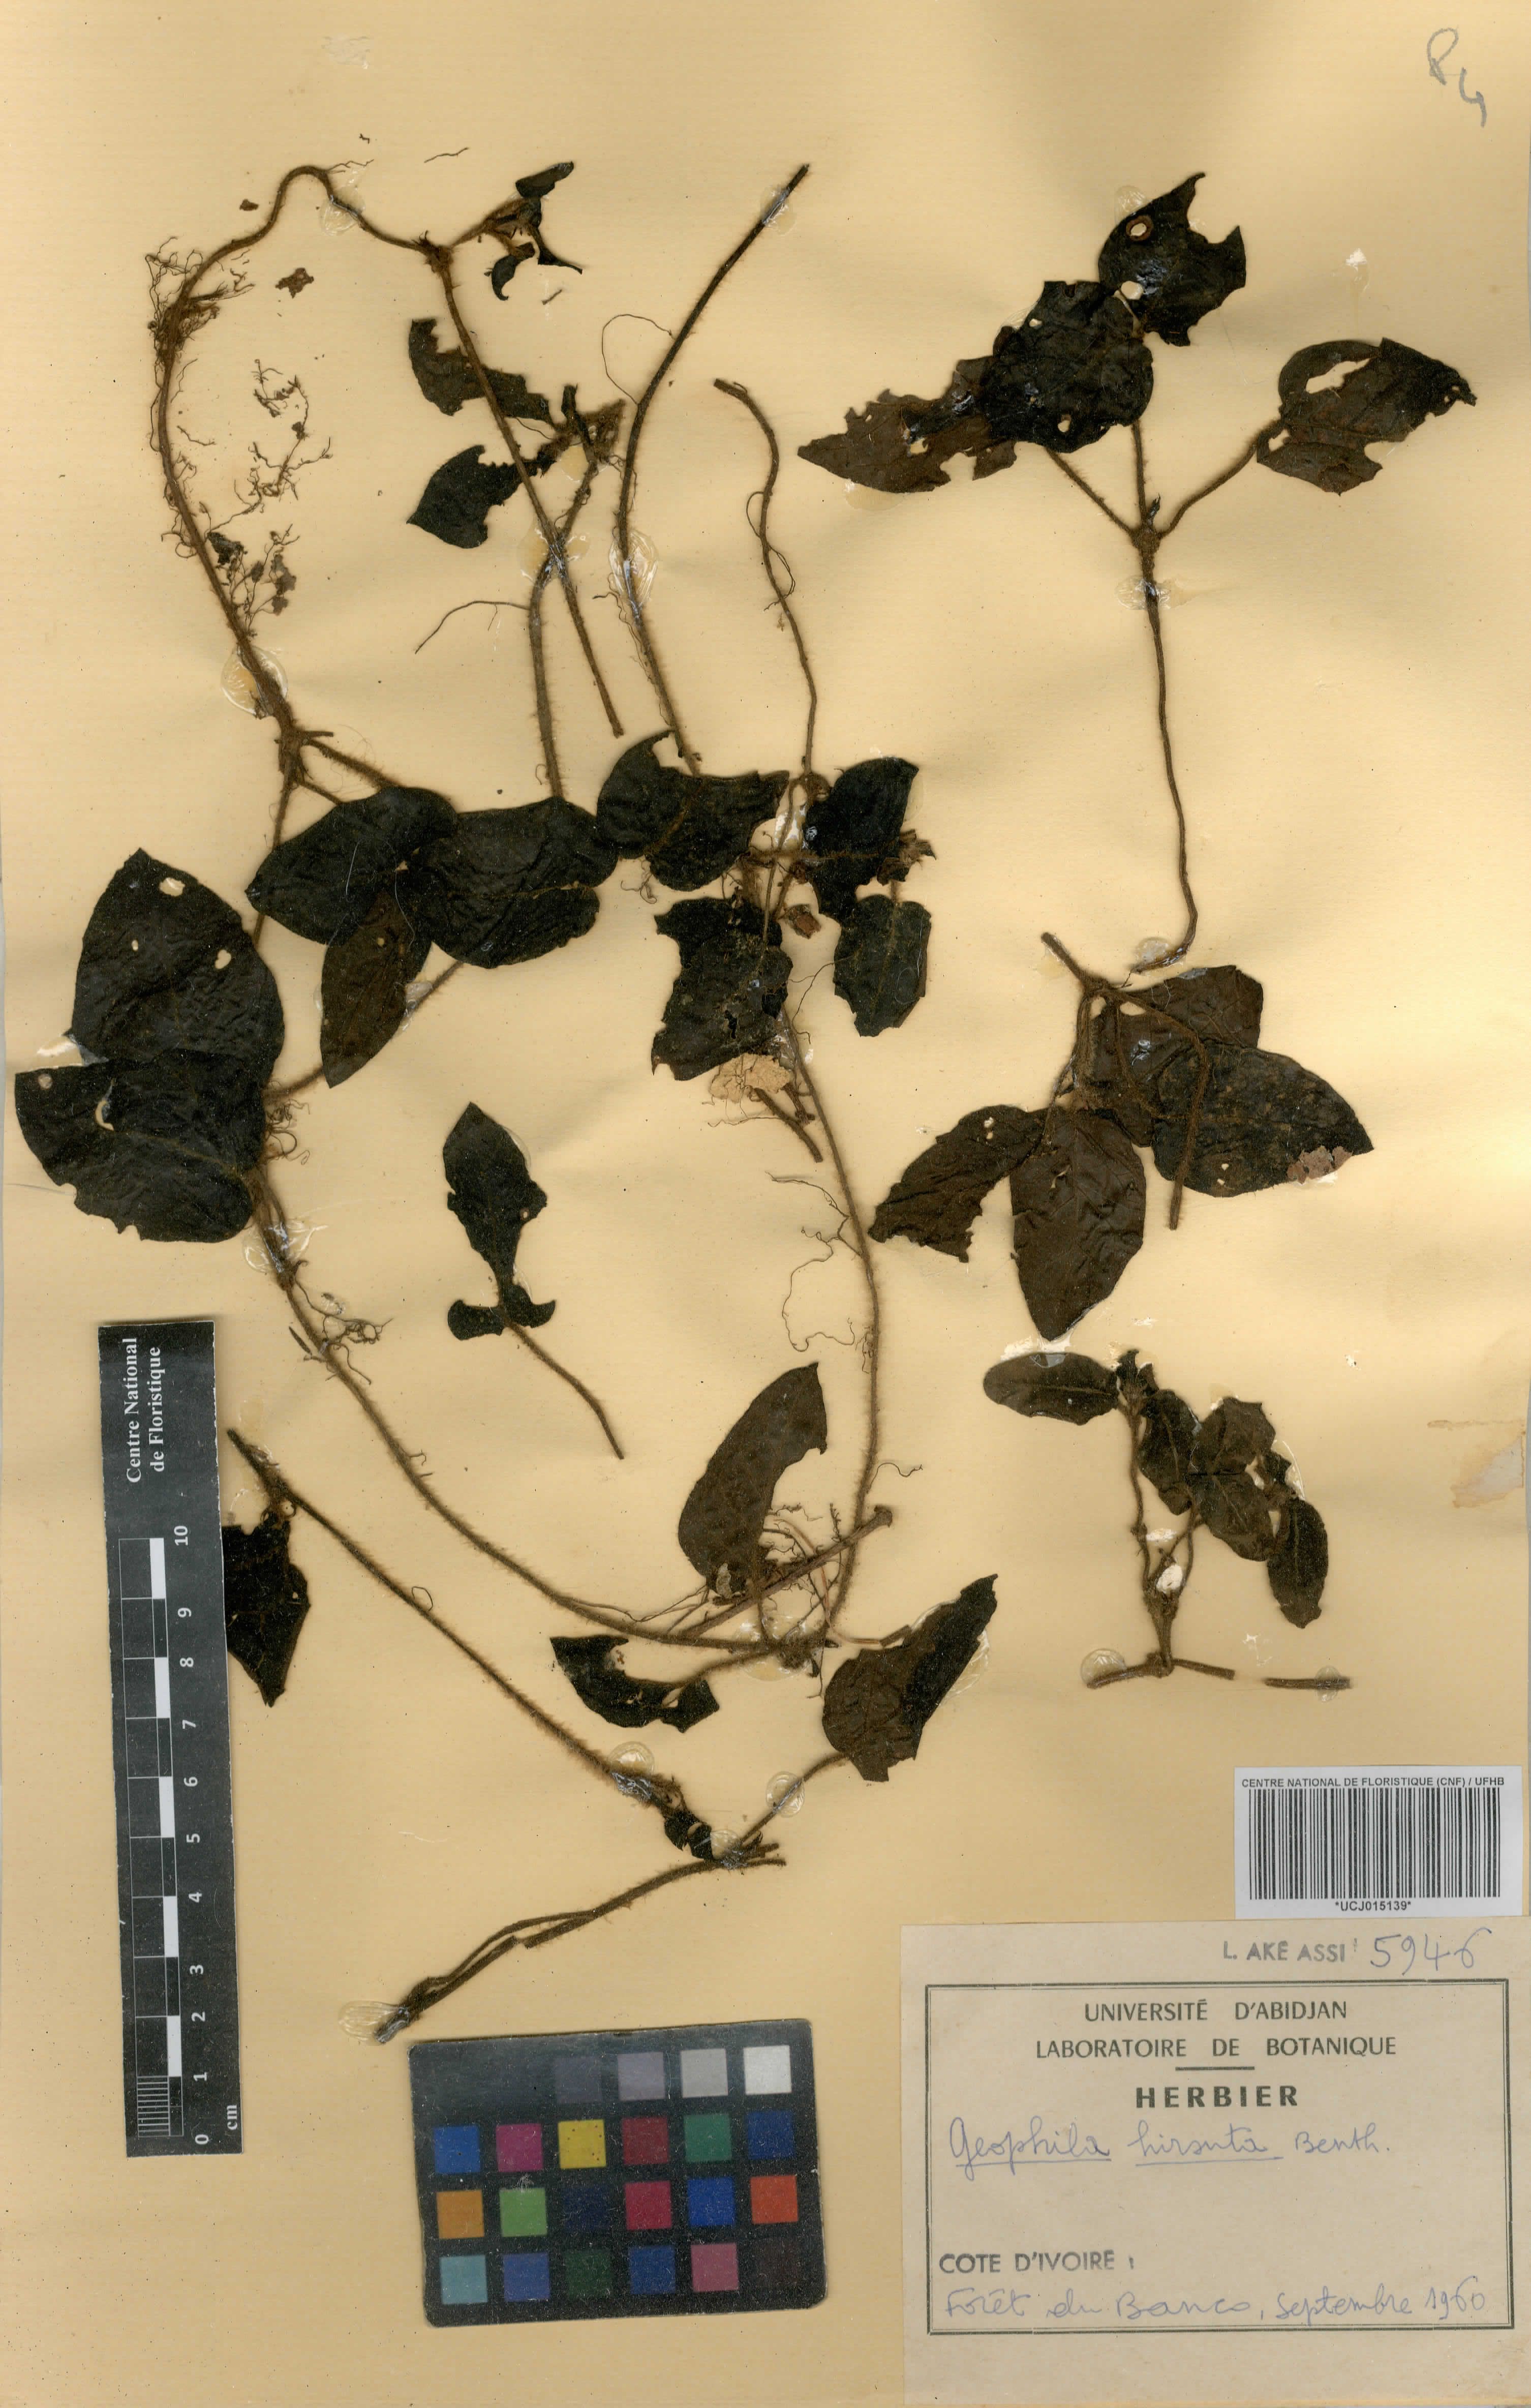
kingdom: Plantae
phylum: Tracheophyta
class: Magnoliopsida
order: Gentianales
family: Rubiaceae
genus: Hymenocoleus
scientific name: Hymenocoleus hirsutus
